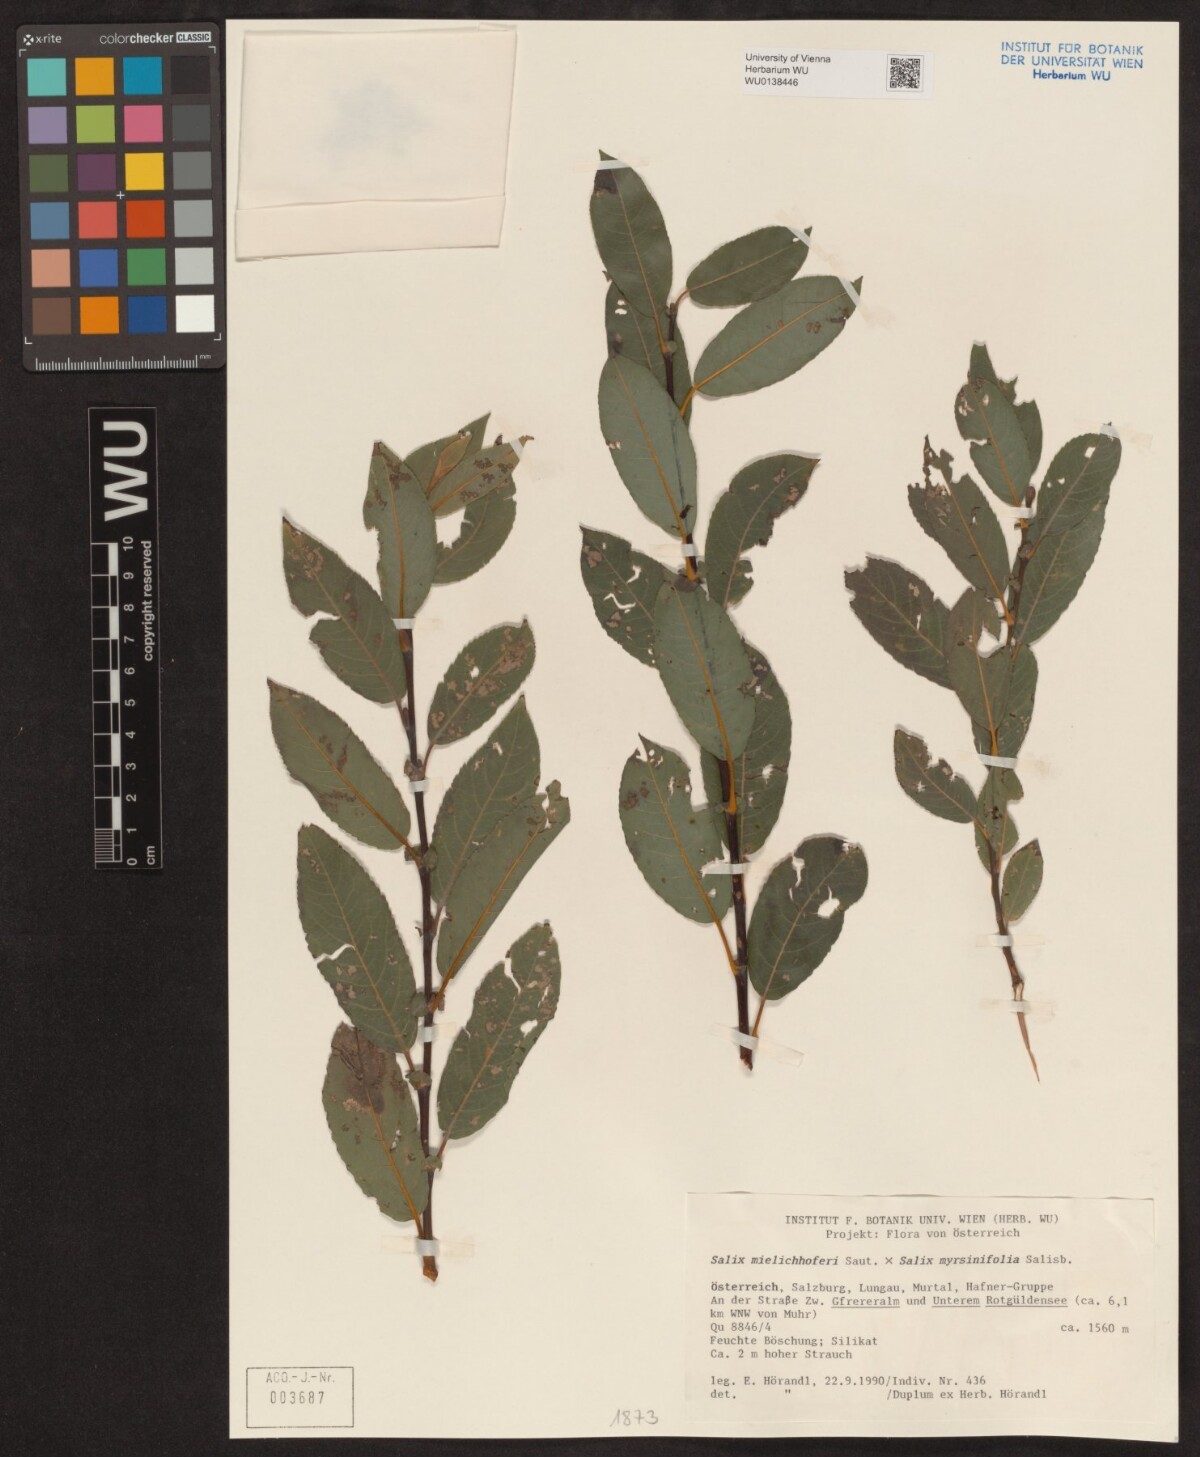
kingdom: Plantae
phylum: Tracheophyta
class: Magnoliopsida
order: Malpighiales
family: Salicaceae
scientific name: Salicaceae
